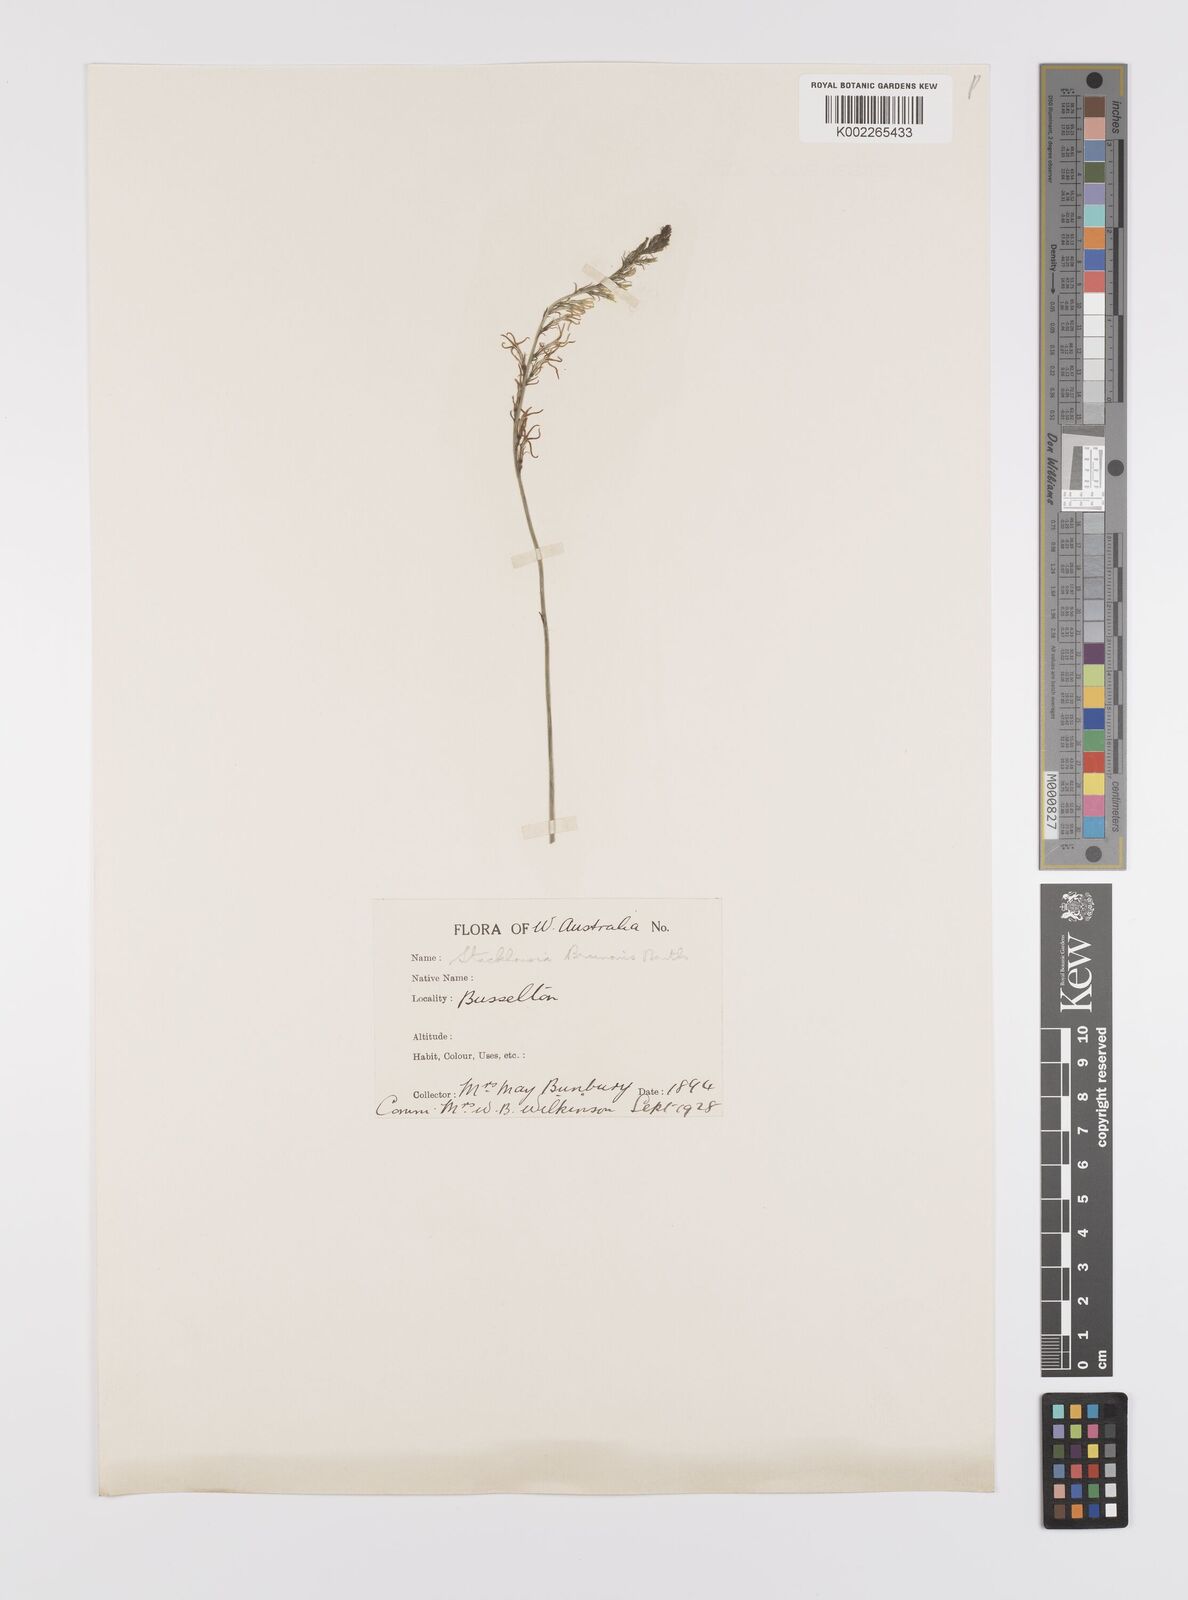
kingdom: Plantae
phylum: Tracheophyta
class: Magnoliopsida
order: Celastrales
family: Celastraceae
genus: Tripterococcus
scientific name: Tripterococcus brunonis
